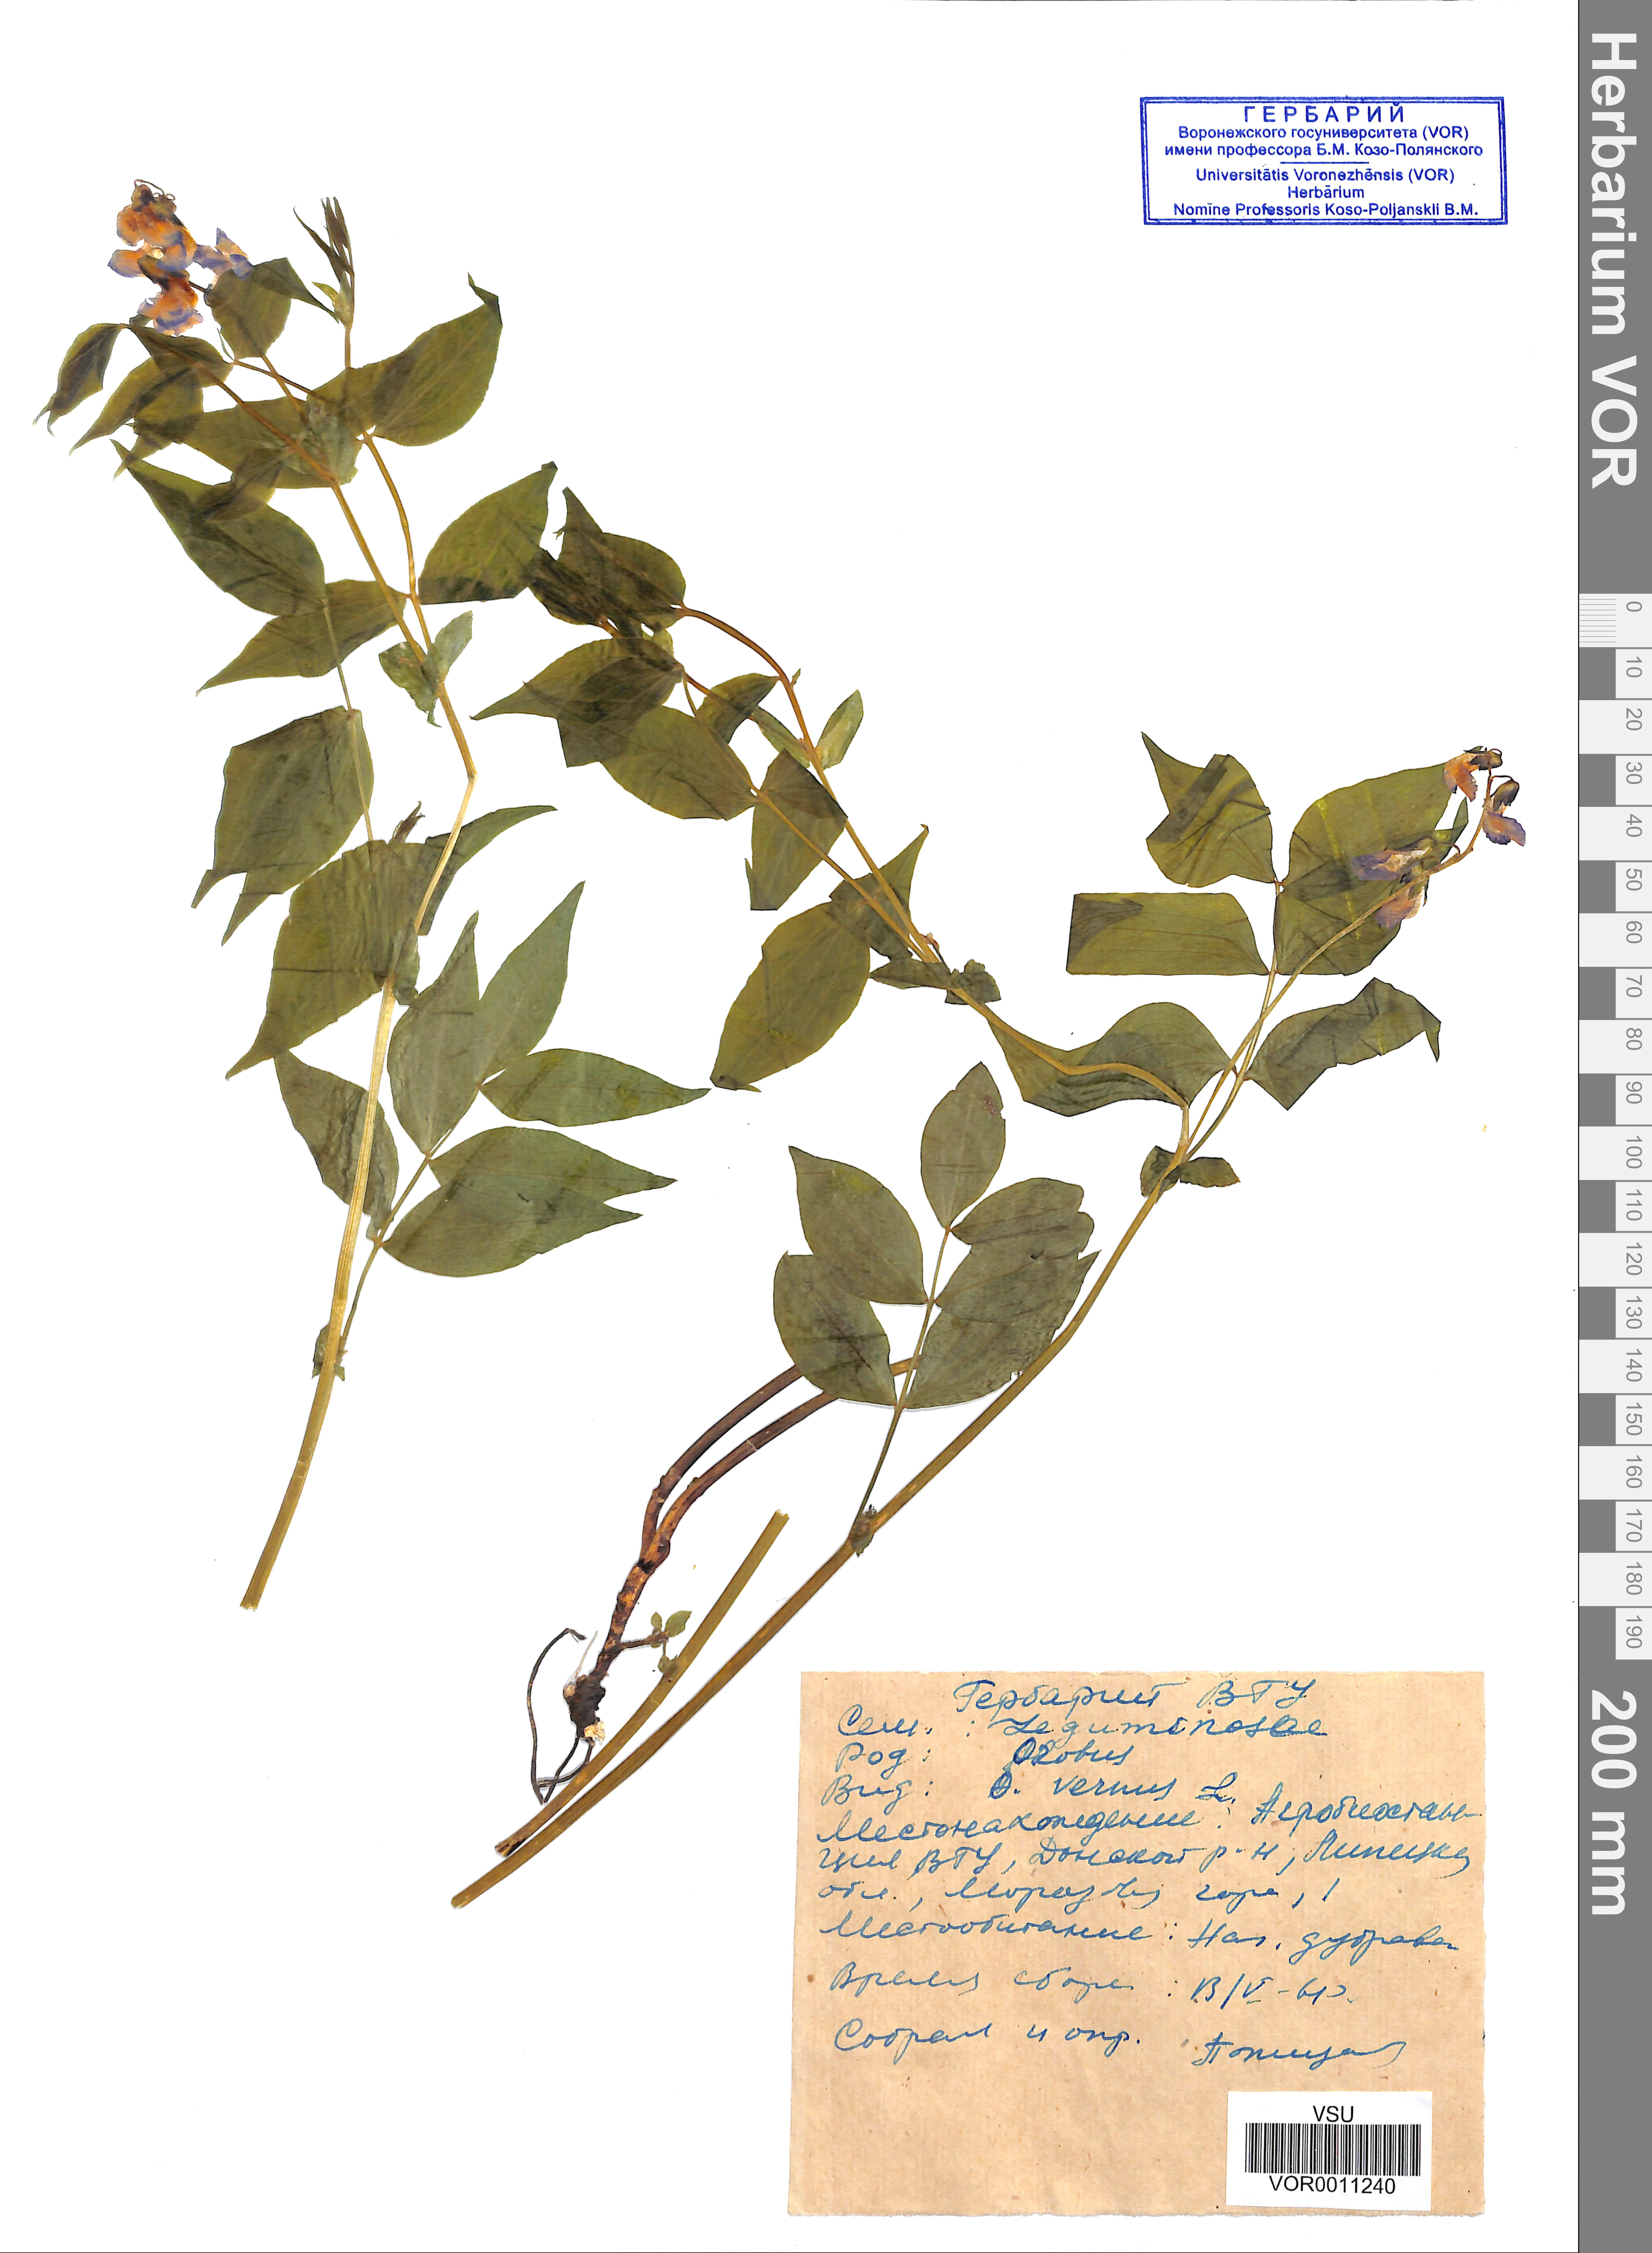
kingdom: Plantae
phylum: Tracheophyta
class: Magnoliopsida
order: Fabales
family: Fabaceae
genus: Lathyrus
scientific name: Lathyrus vernus
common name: Spring pea
